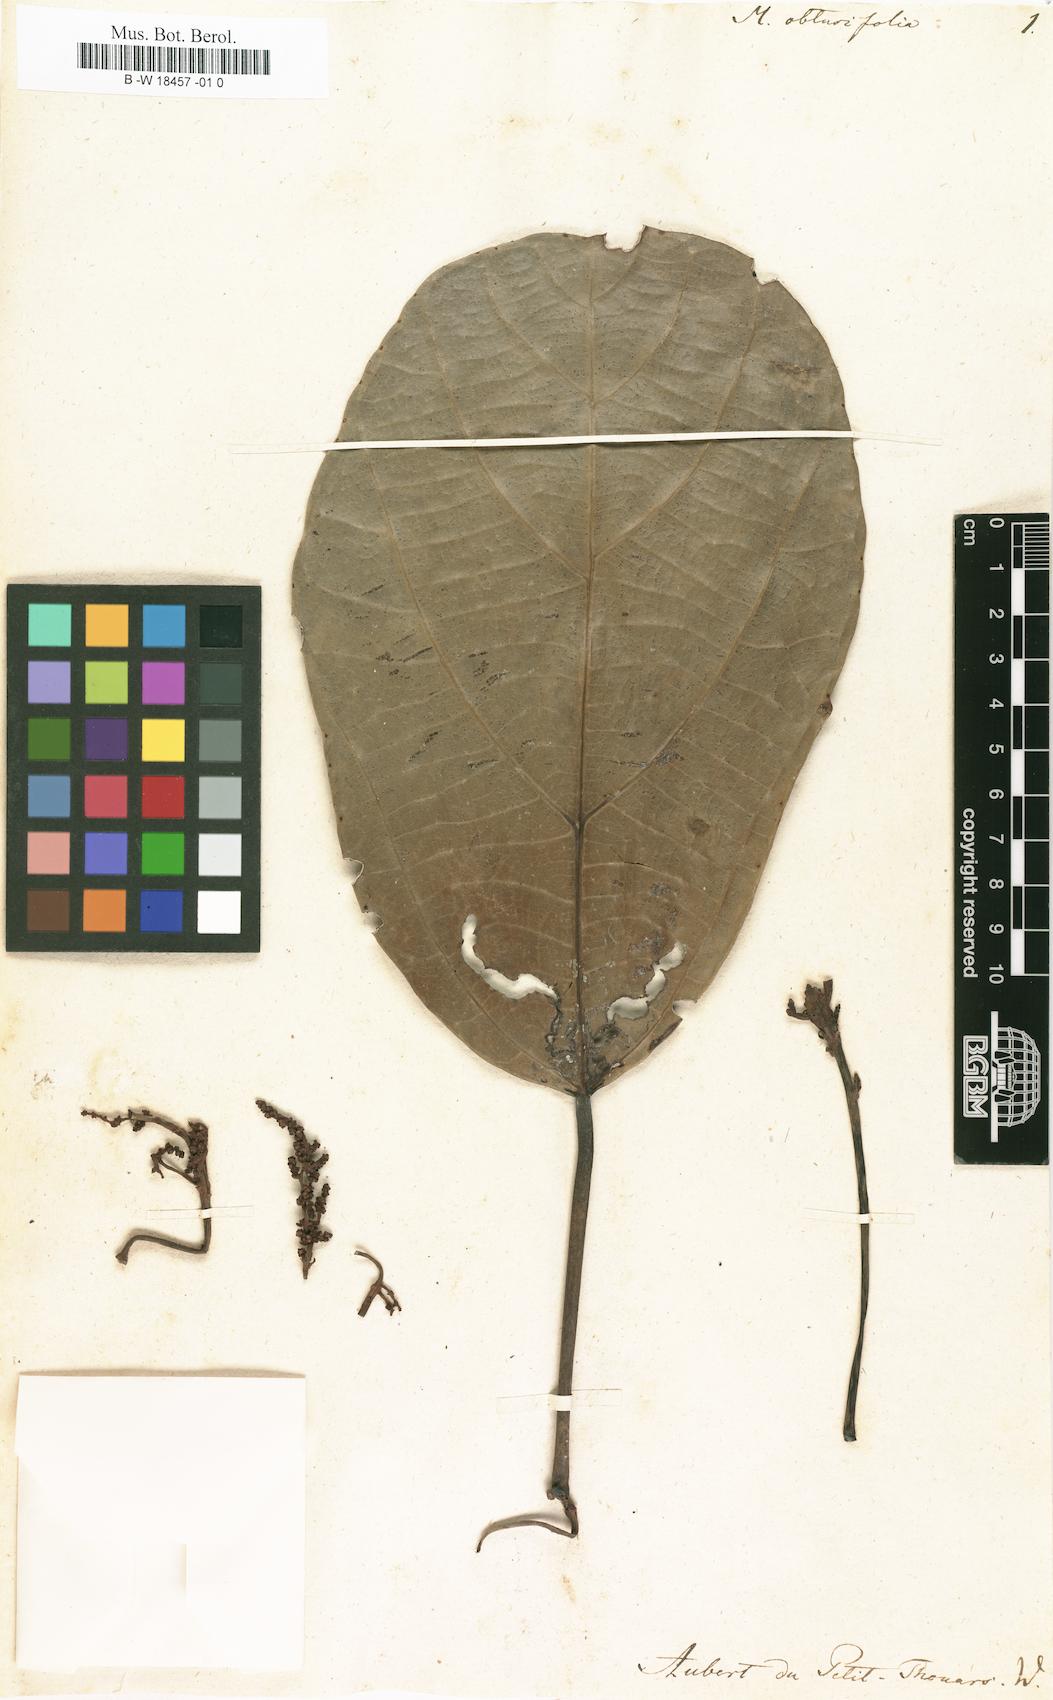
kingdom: Plantae
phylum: Tracheophyta
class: Magnoliopsida
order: Malpighiales
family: Euphorbiaceae
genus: Macaranga
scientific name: Macaranga
